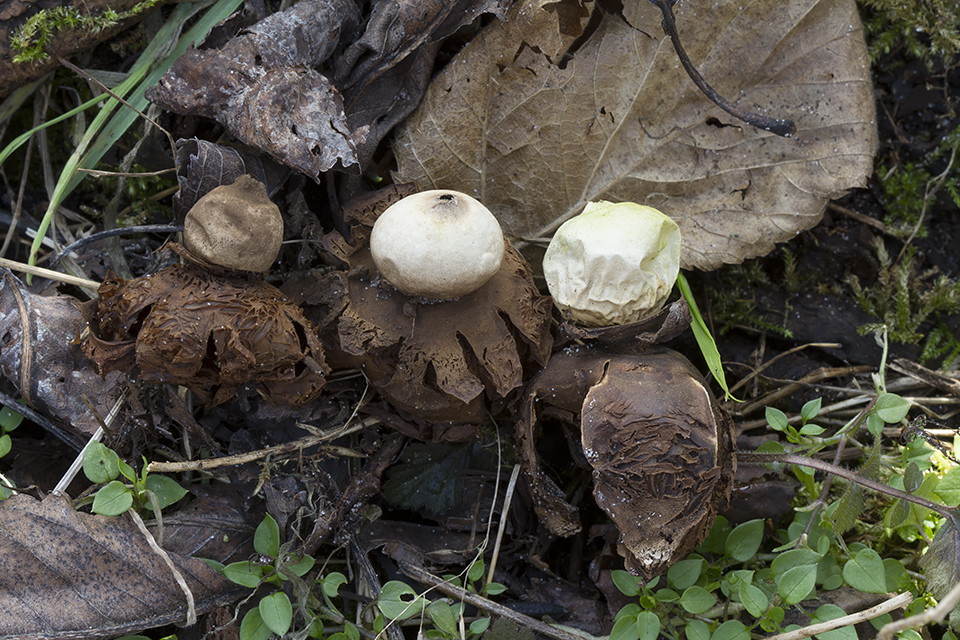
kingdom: Fungi
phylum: Basidiomycota
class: Agaricomycetes
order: Geastrales
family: Geastraceae
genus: Geastrum
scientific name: Geastrum michelianum
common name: kødet stjernebold
